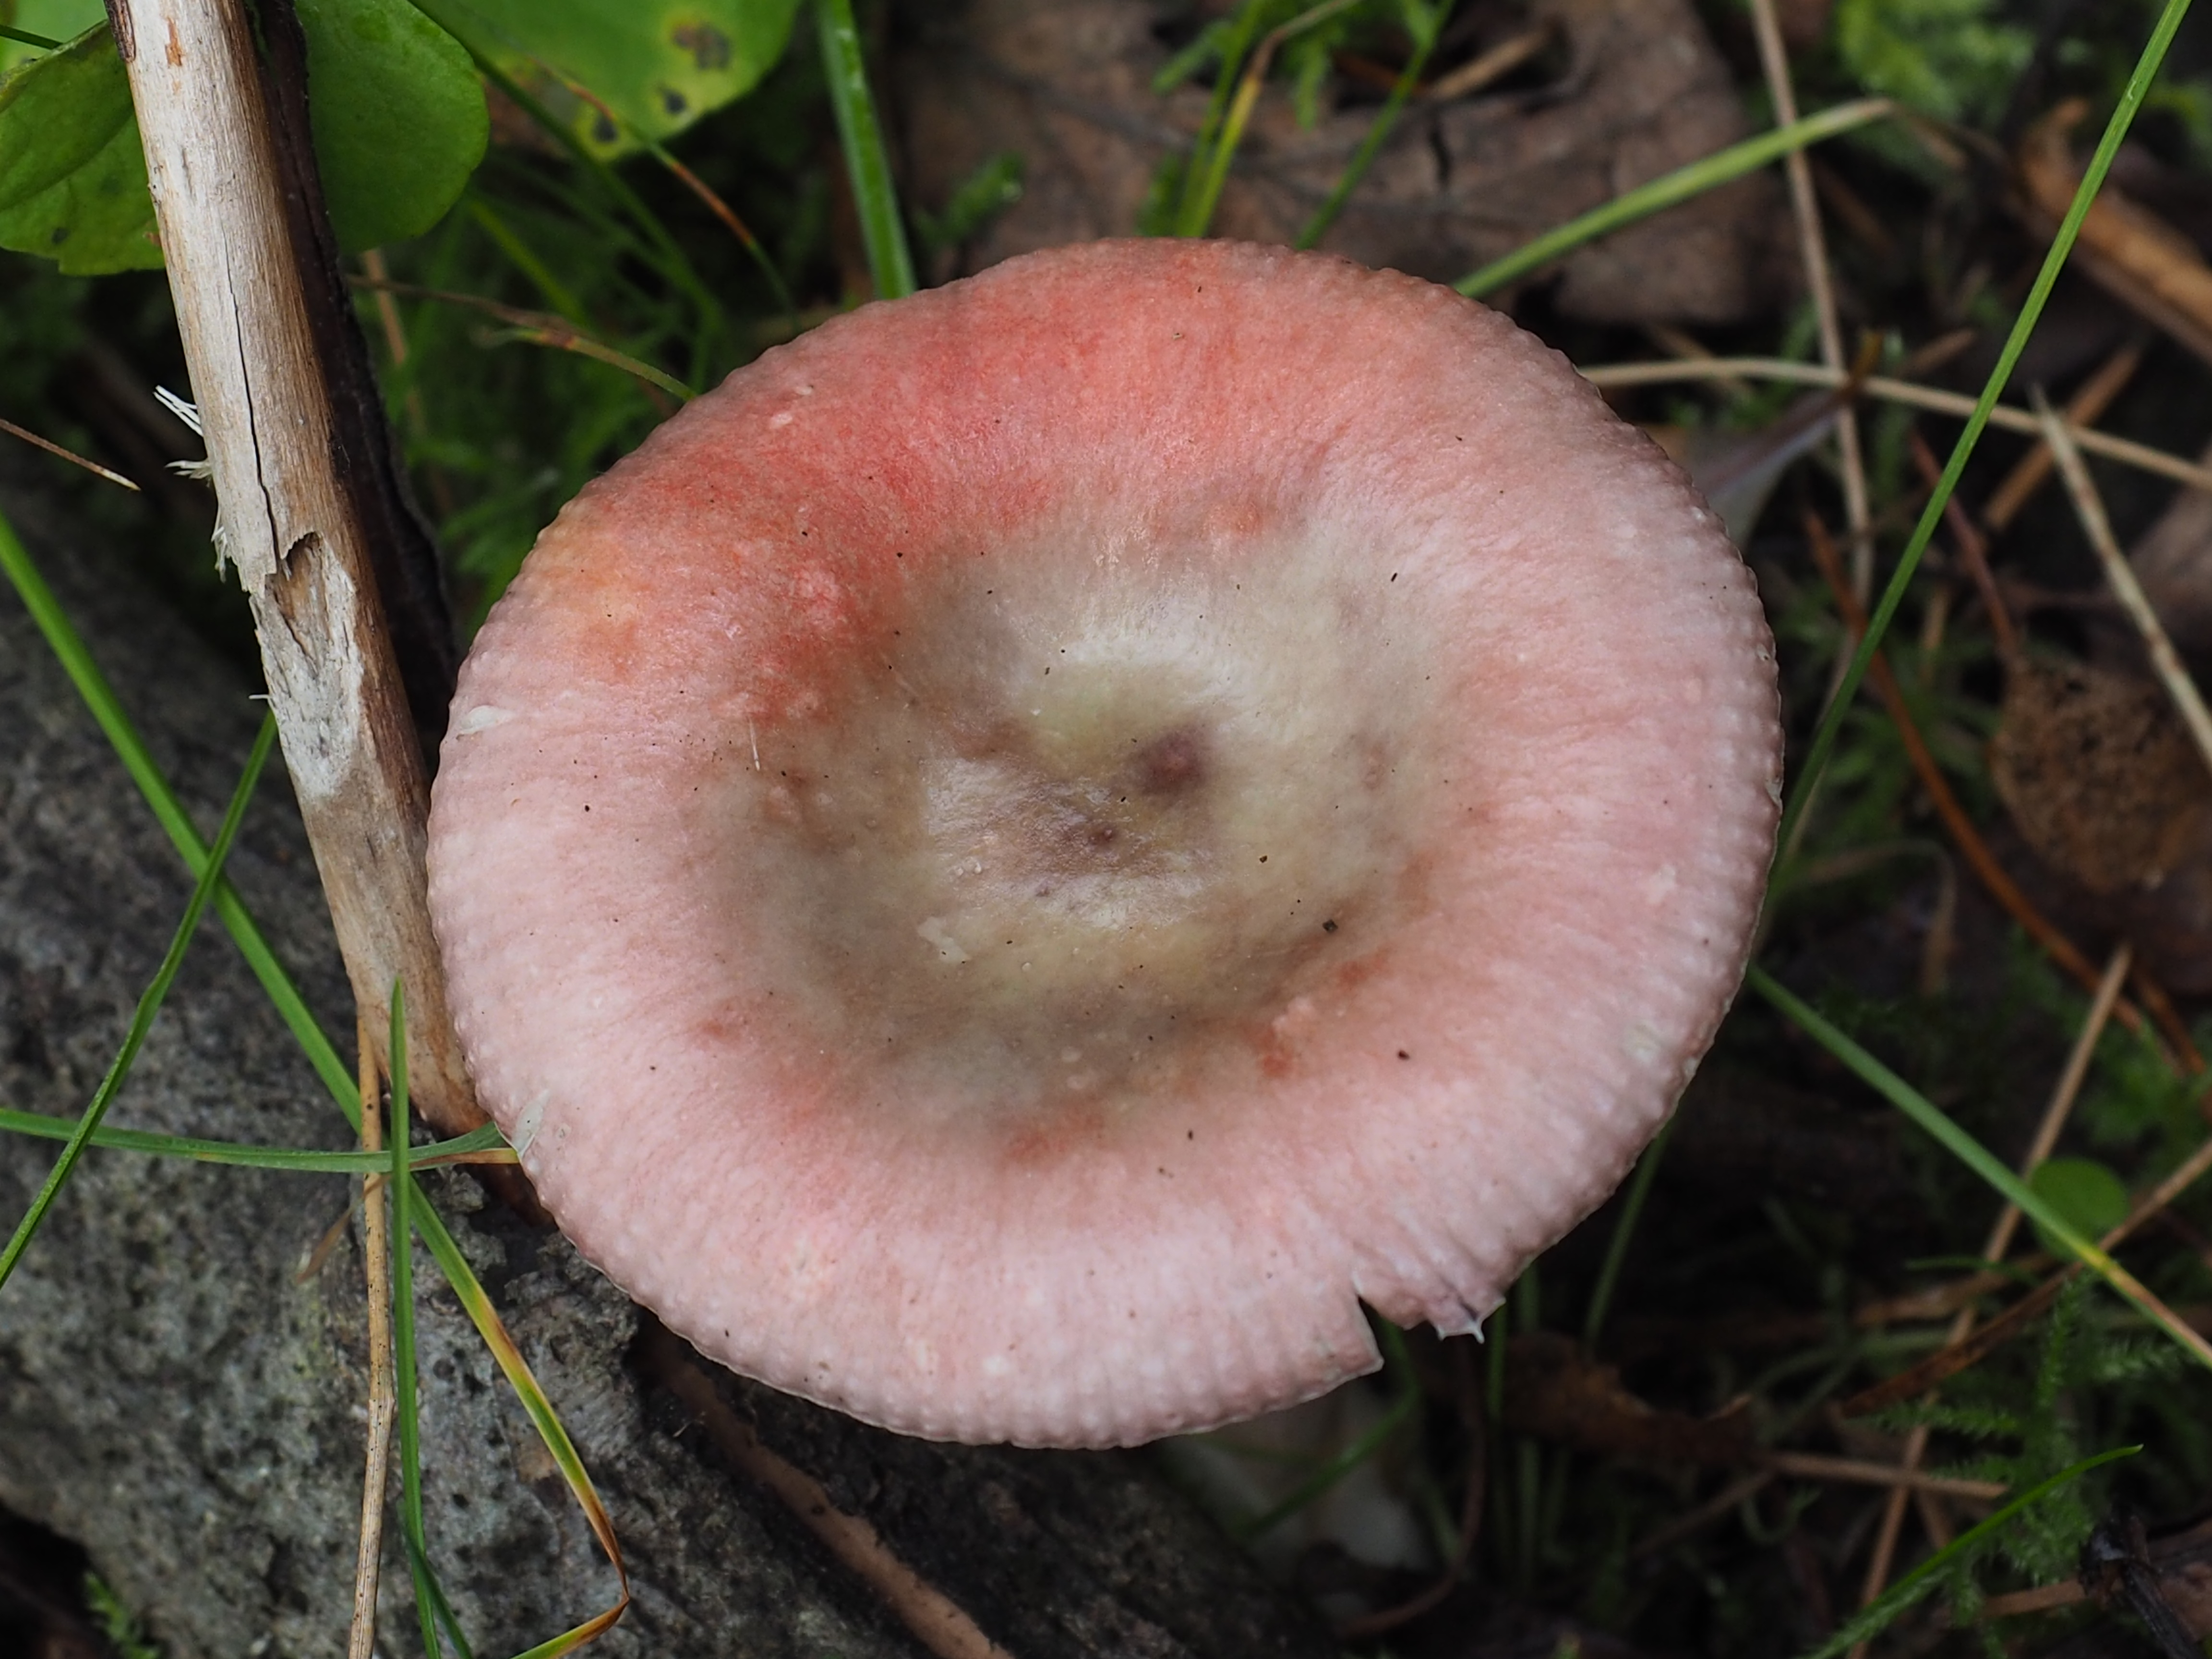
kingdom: Fungi
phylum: Basidiomycota
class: Agaricomycetes
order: Russulales
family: Russulaceae
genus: Russula
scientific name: Russula gracillima
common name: Slender brittlegill
